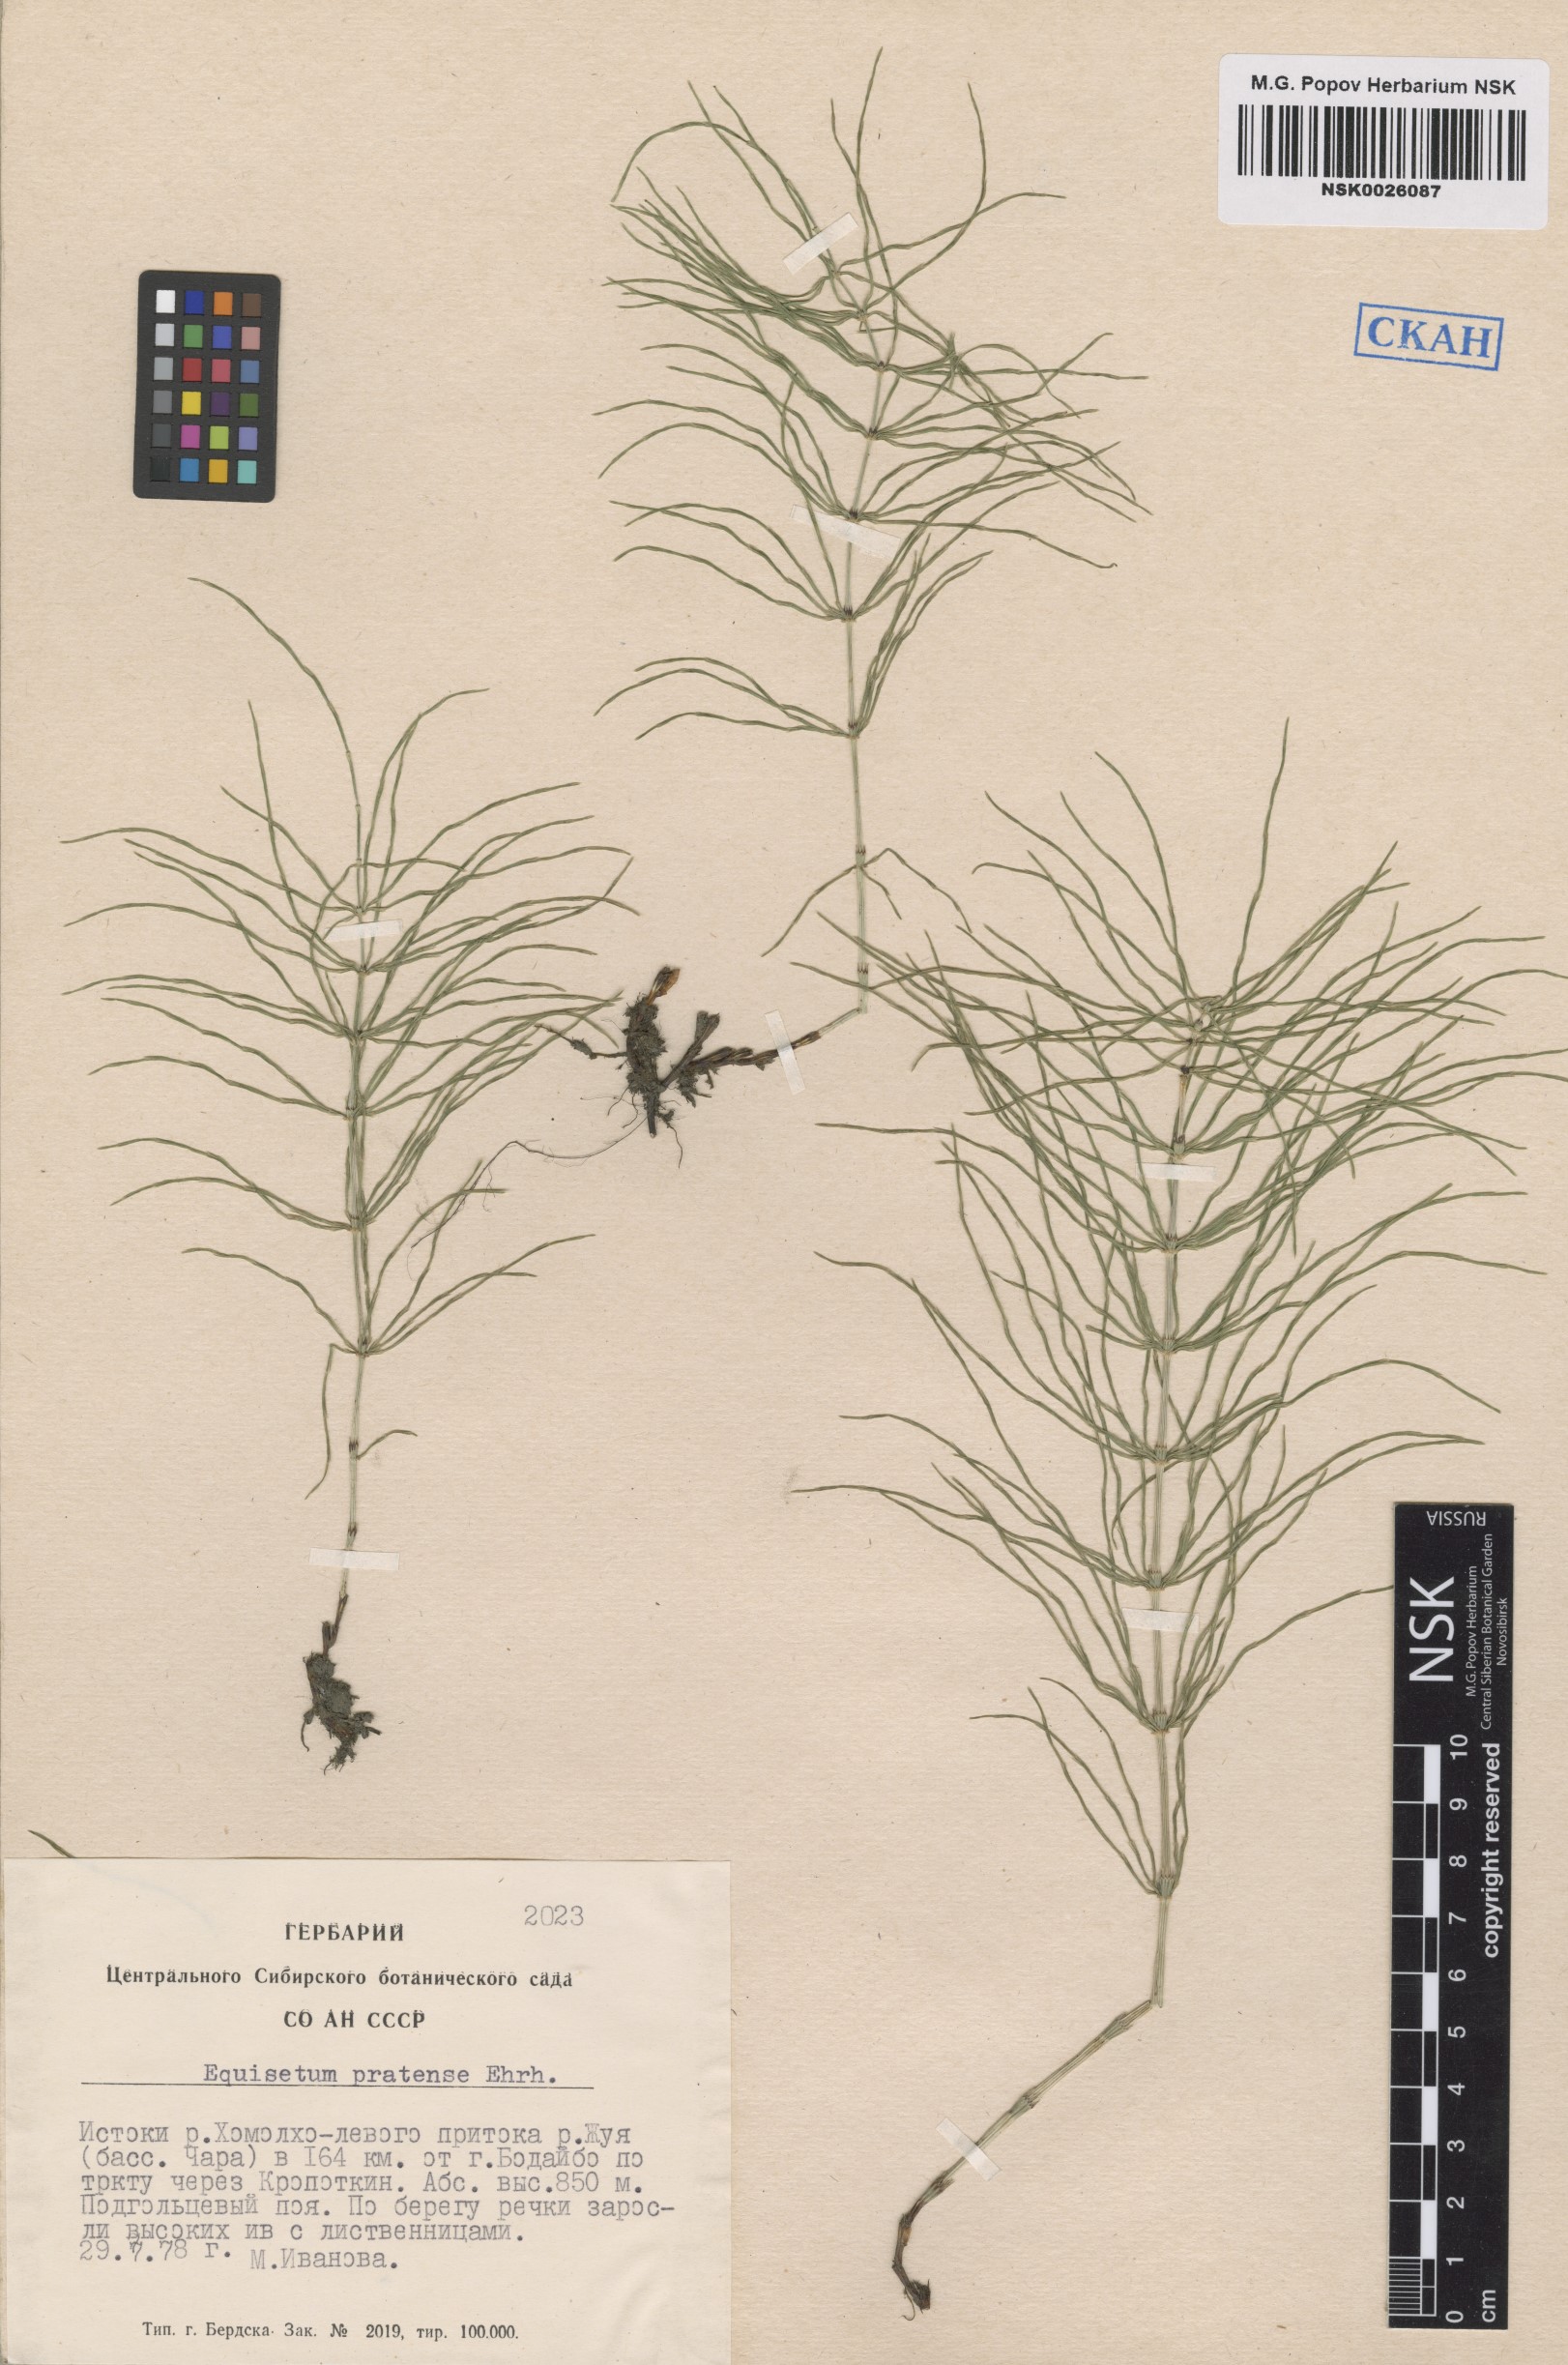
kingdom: Plantae
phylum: Tracheophyta
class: Polypodiopsida
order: Equisetales
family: Equisetaceae
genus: Equisetum
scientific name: Equisetum pratense
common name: Meadow horsetail
